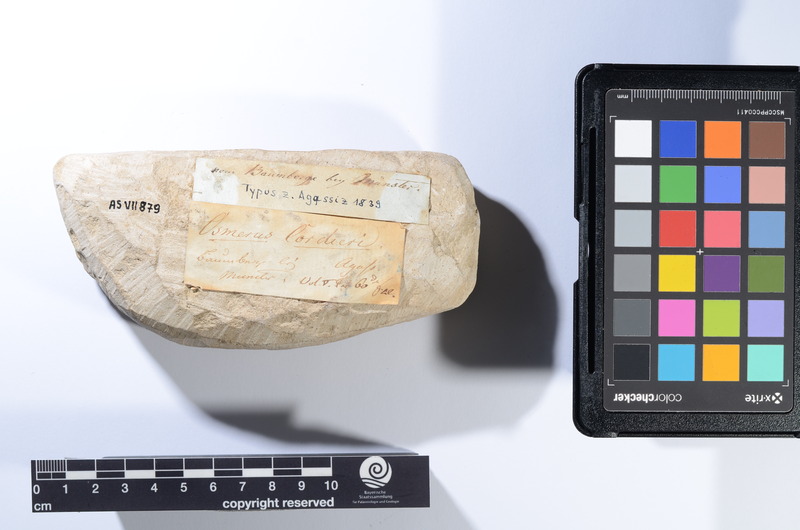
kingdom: Animalia
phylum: Chordata
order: Myctophiformes
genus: Sardinius
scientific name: Sardinius Osmerus cordieri
